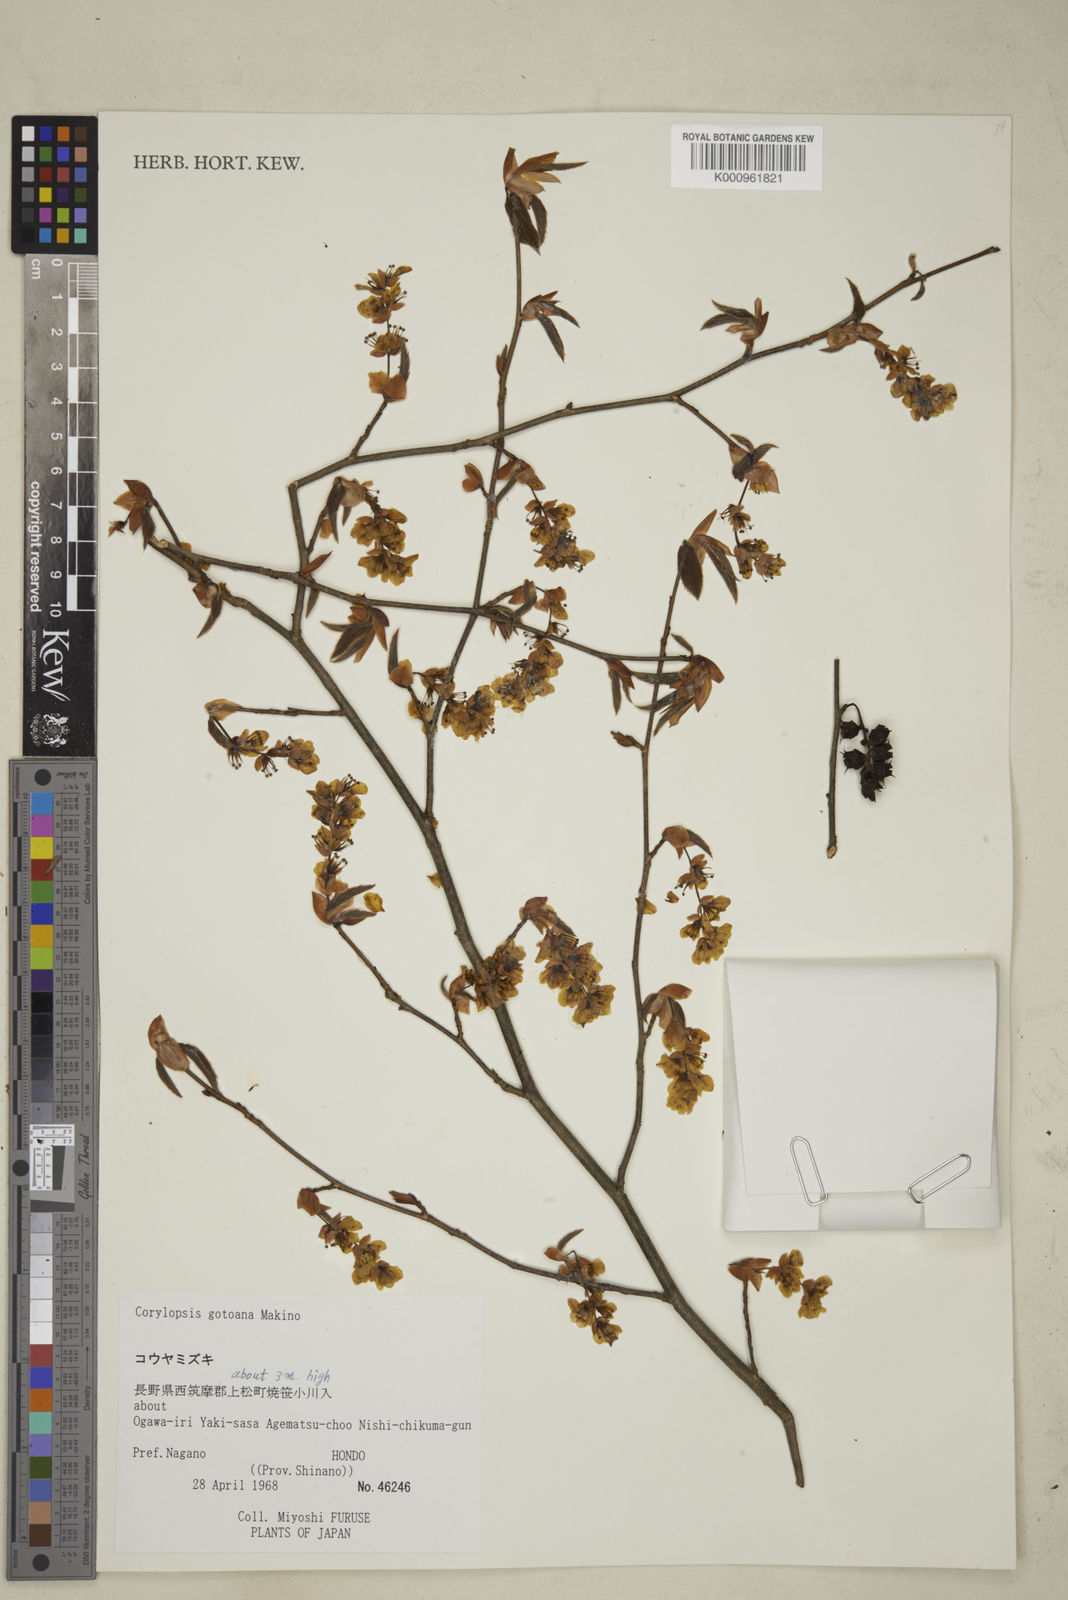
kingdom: Plantae
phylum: Tracheophyta
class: Magnoliopsida
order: Saxifragales
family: Hamamelidaceae
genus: Corylopsis
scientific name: Corylopsis glabrescens
